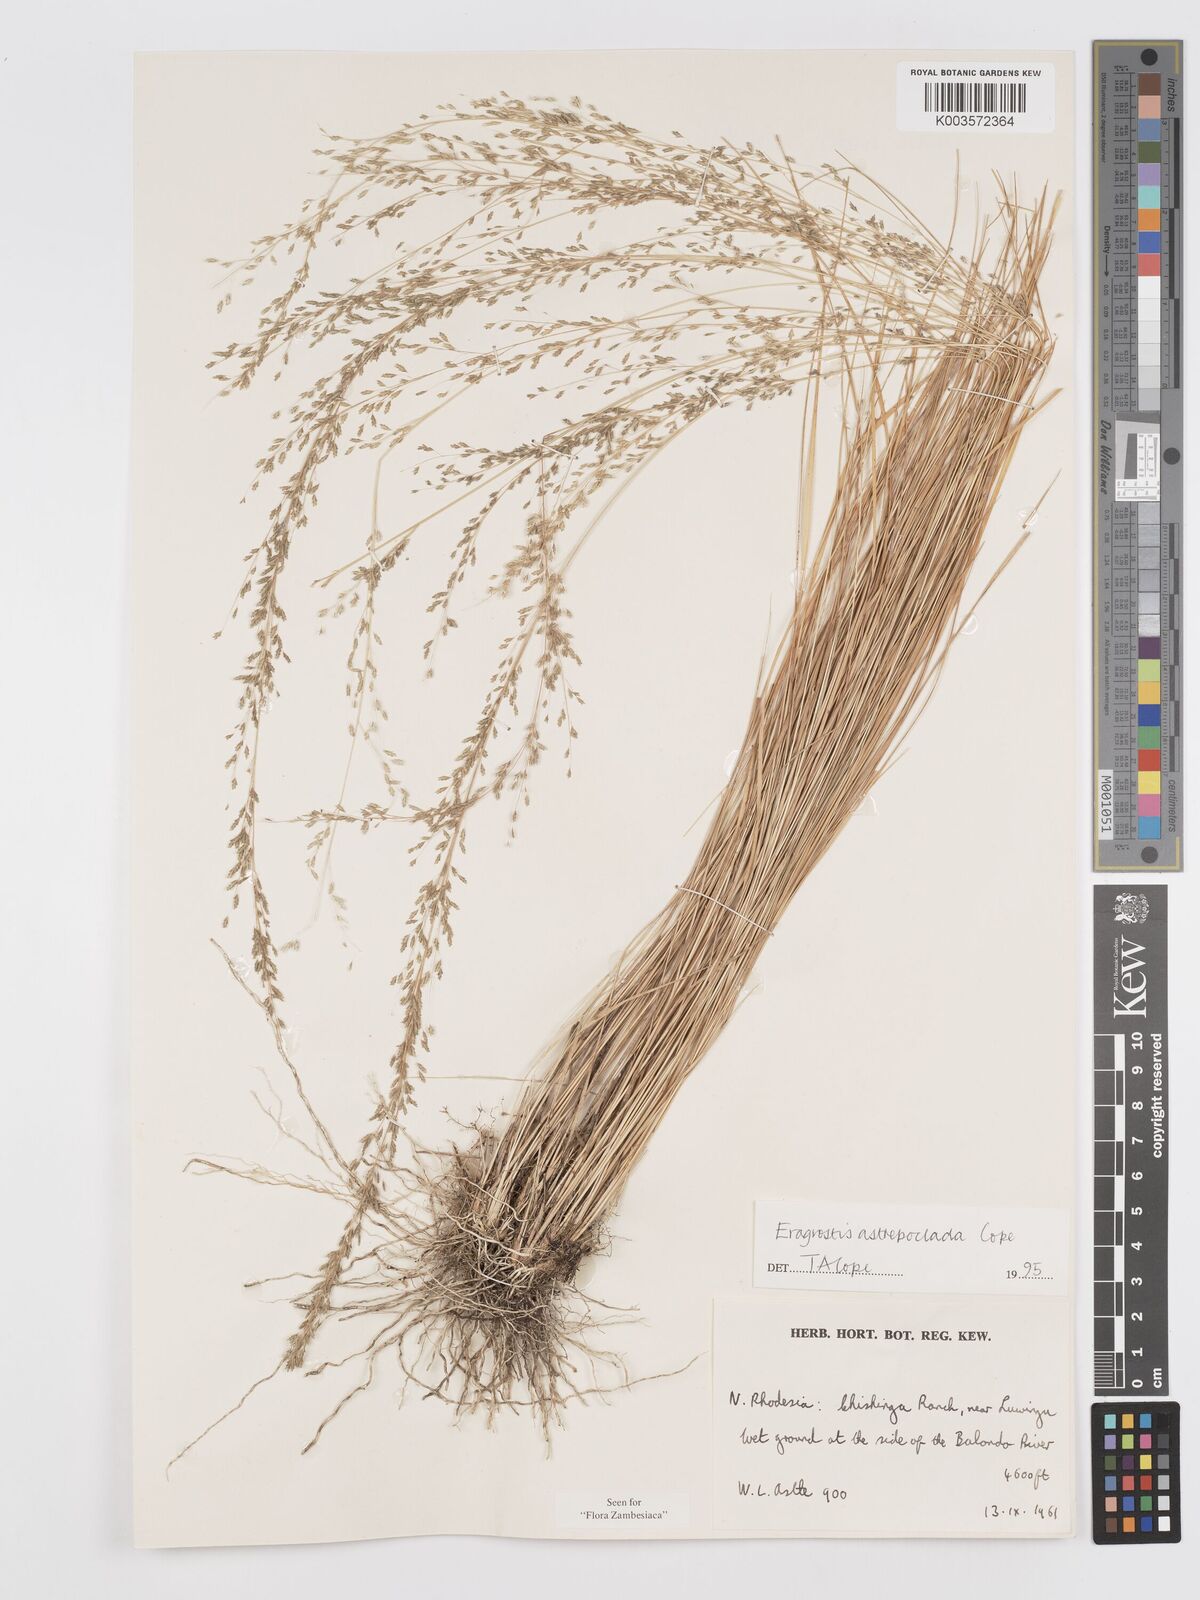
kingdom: Plantae
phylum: Tracheophyta
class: Liliopsida
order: Poales
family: Poaceae
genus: Eragrostis
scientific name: Eragrostis astreptoclada
